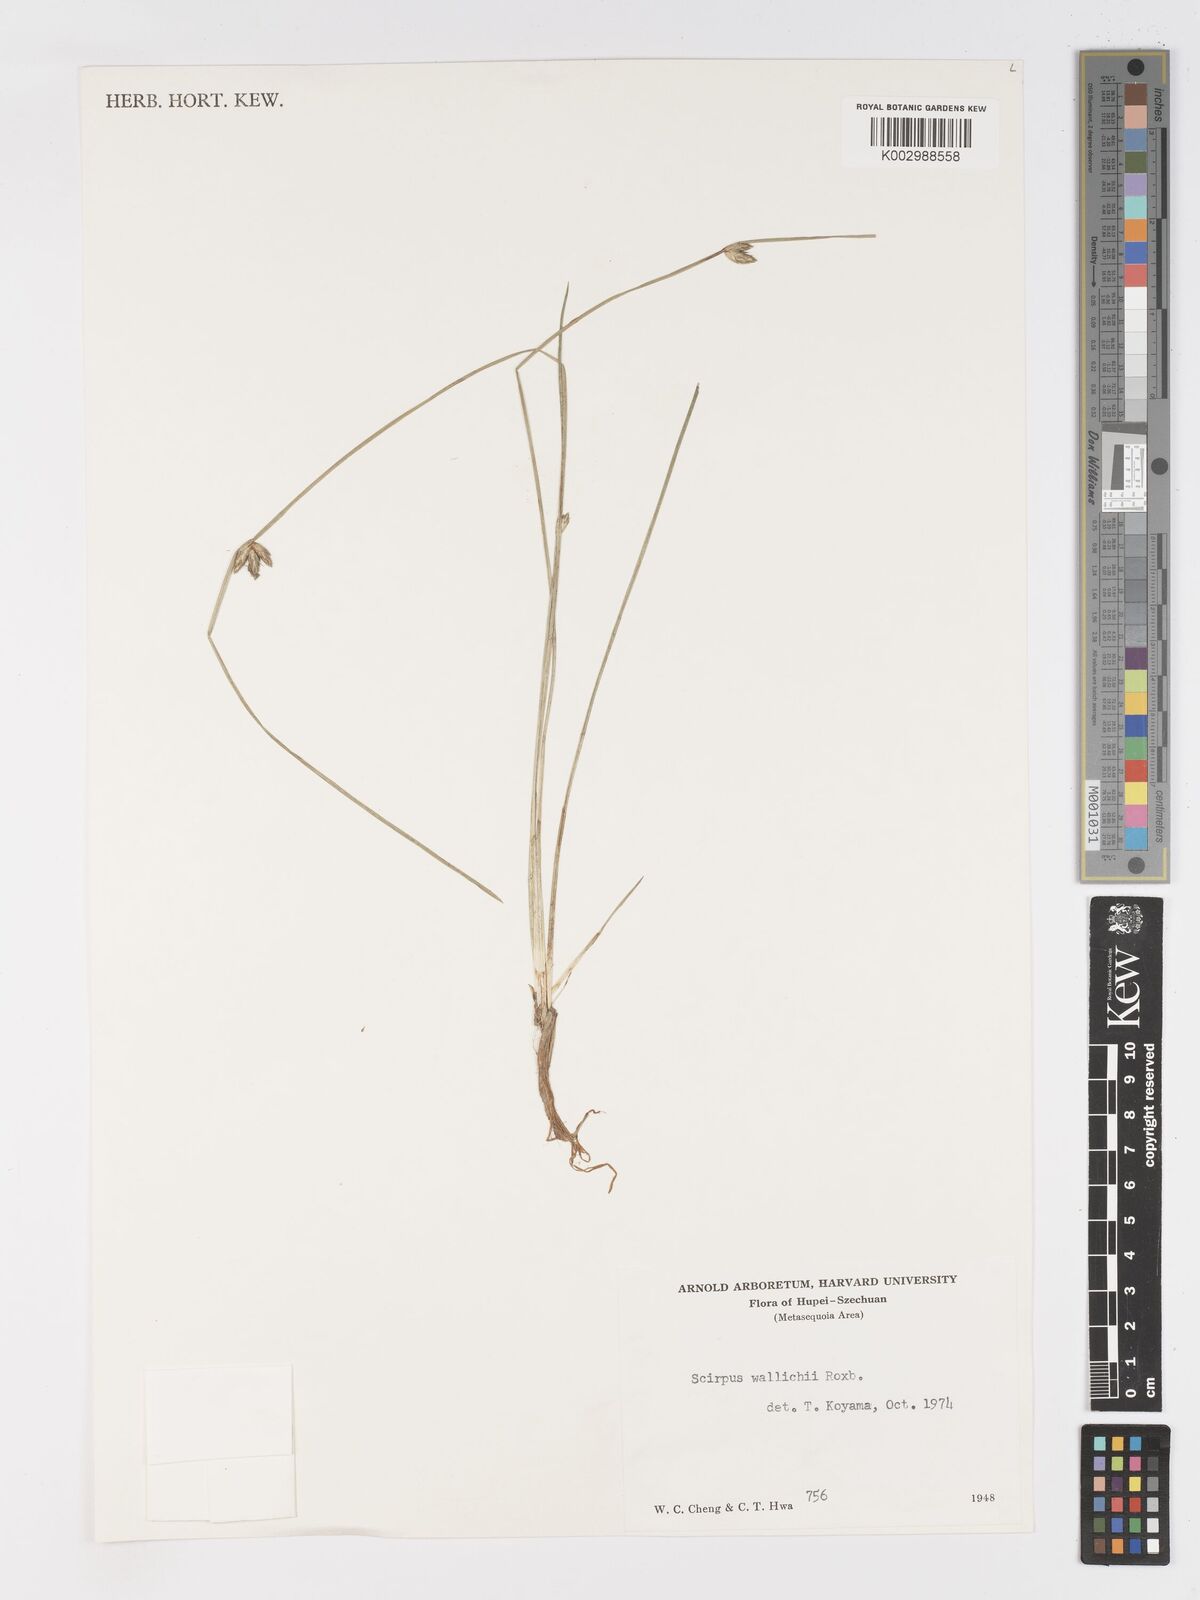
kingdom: Plantae
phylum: Tracheophyta
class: Liliopsida
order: Poales
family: Cyperaceae
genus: Schoenoplectiella
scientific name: Schoenoplectiella wallichii
